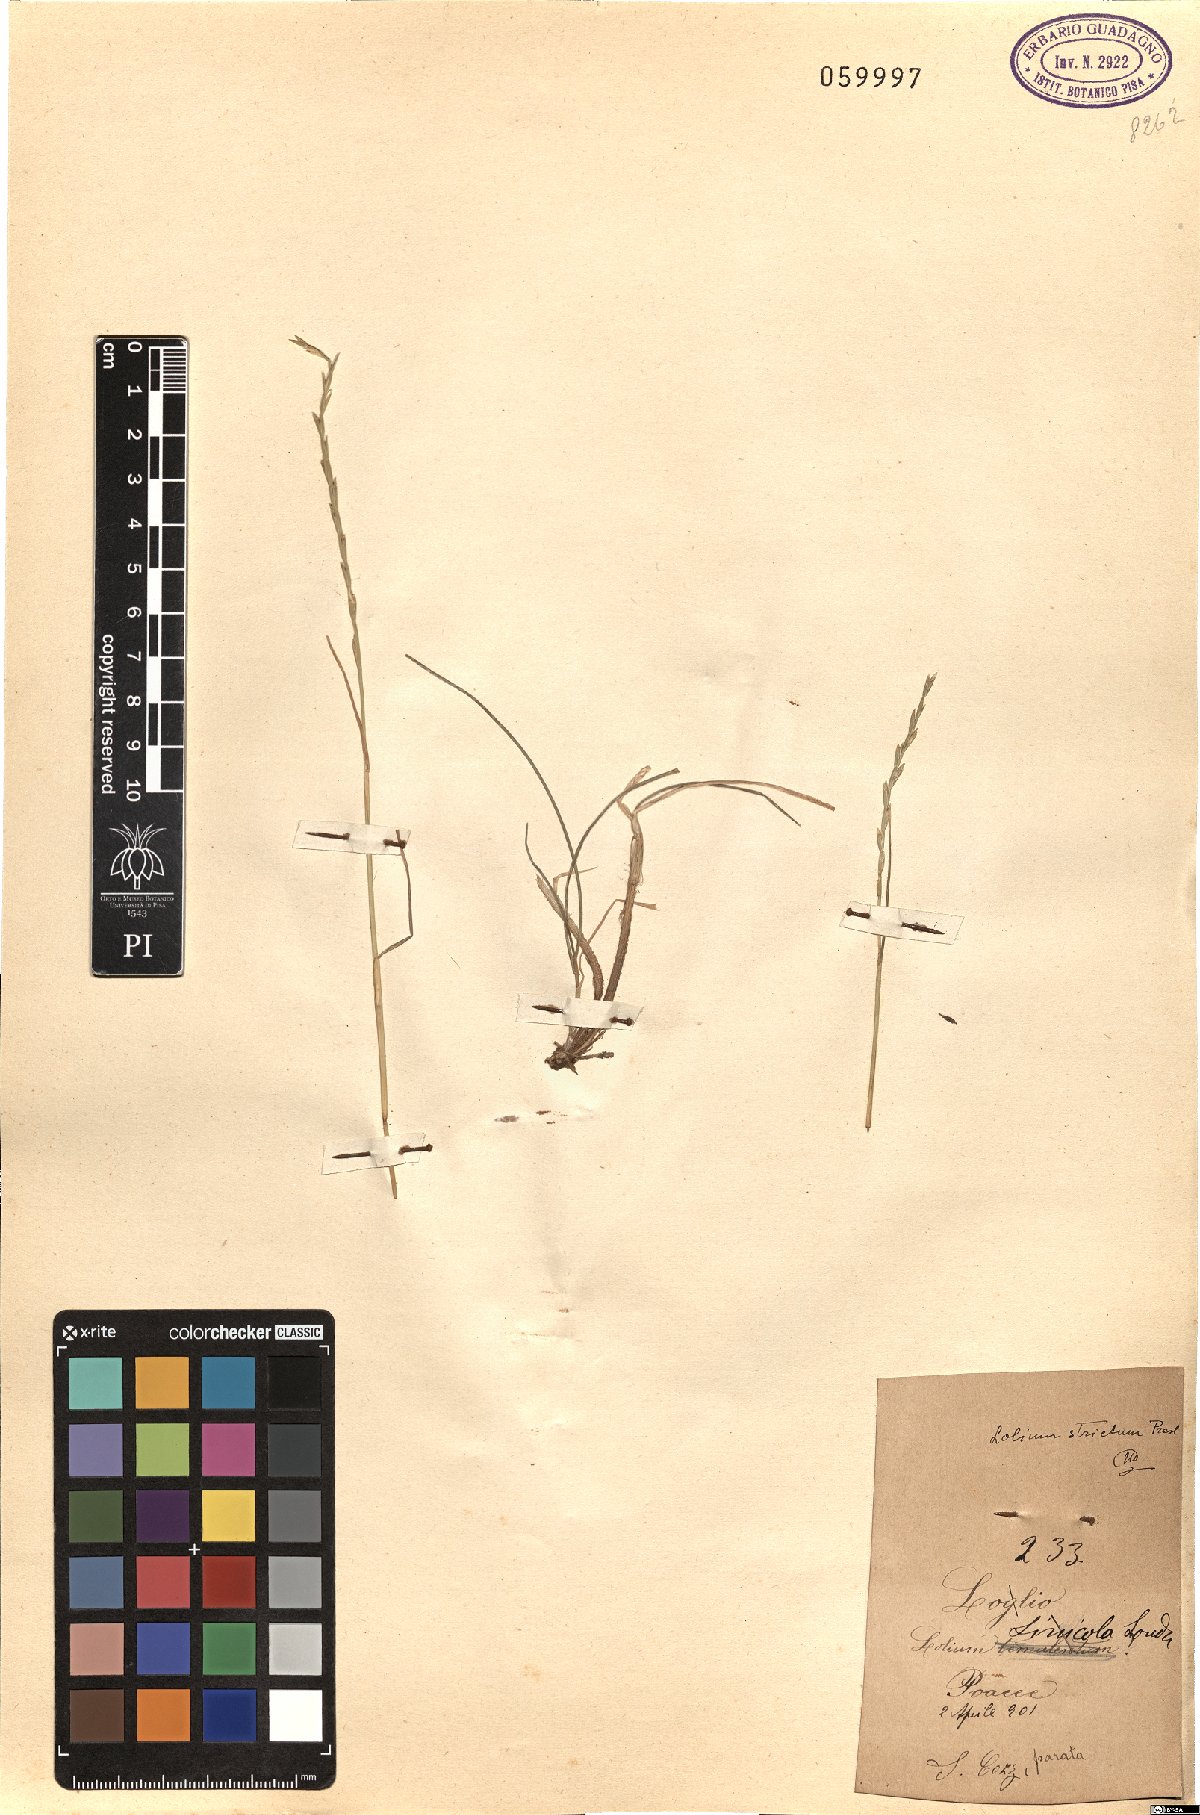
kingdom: Plantae
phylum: Tracheophyta
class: Liliopsida
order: Poales
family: Poaceae
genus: Lolium
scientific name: Lolium rigidum
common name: Wimmera ryegrass
